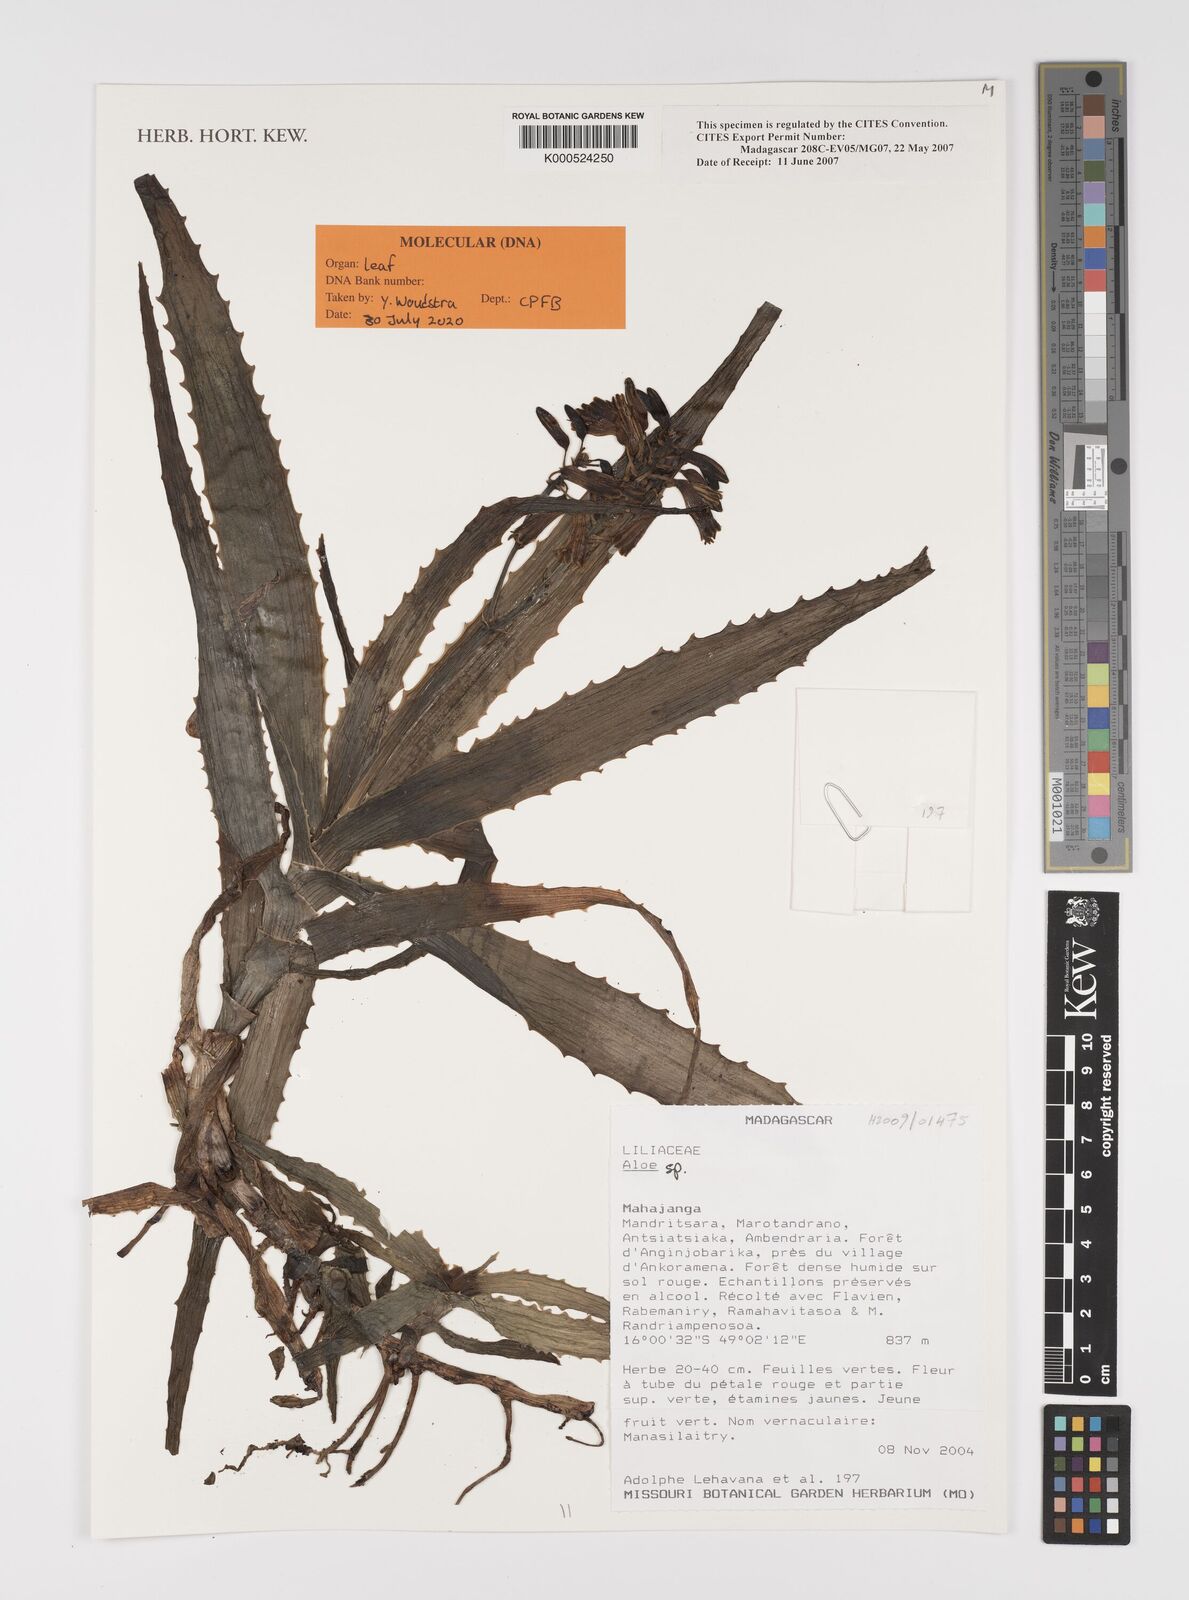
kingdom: Plantae
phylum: Tracheophyta
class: Liliopsida
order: Asparagales
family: Asphodelaceae
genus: Aloe
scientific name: Aloe
